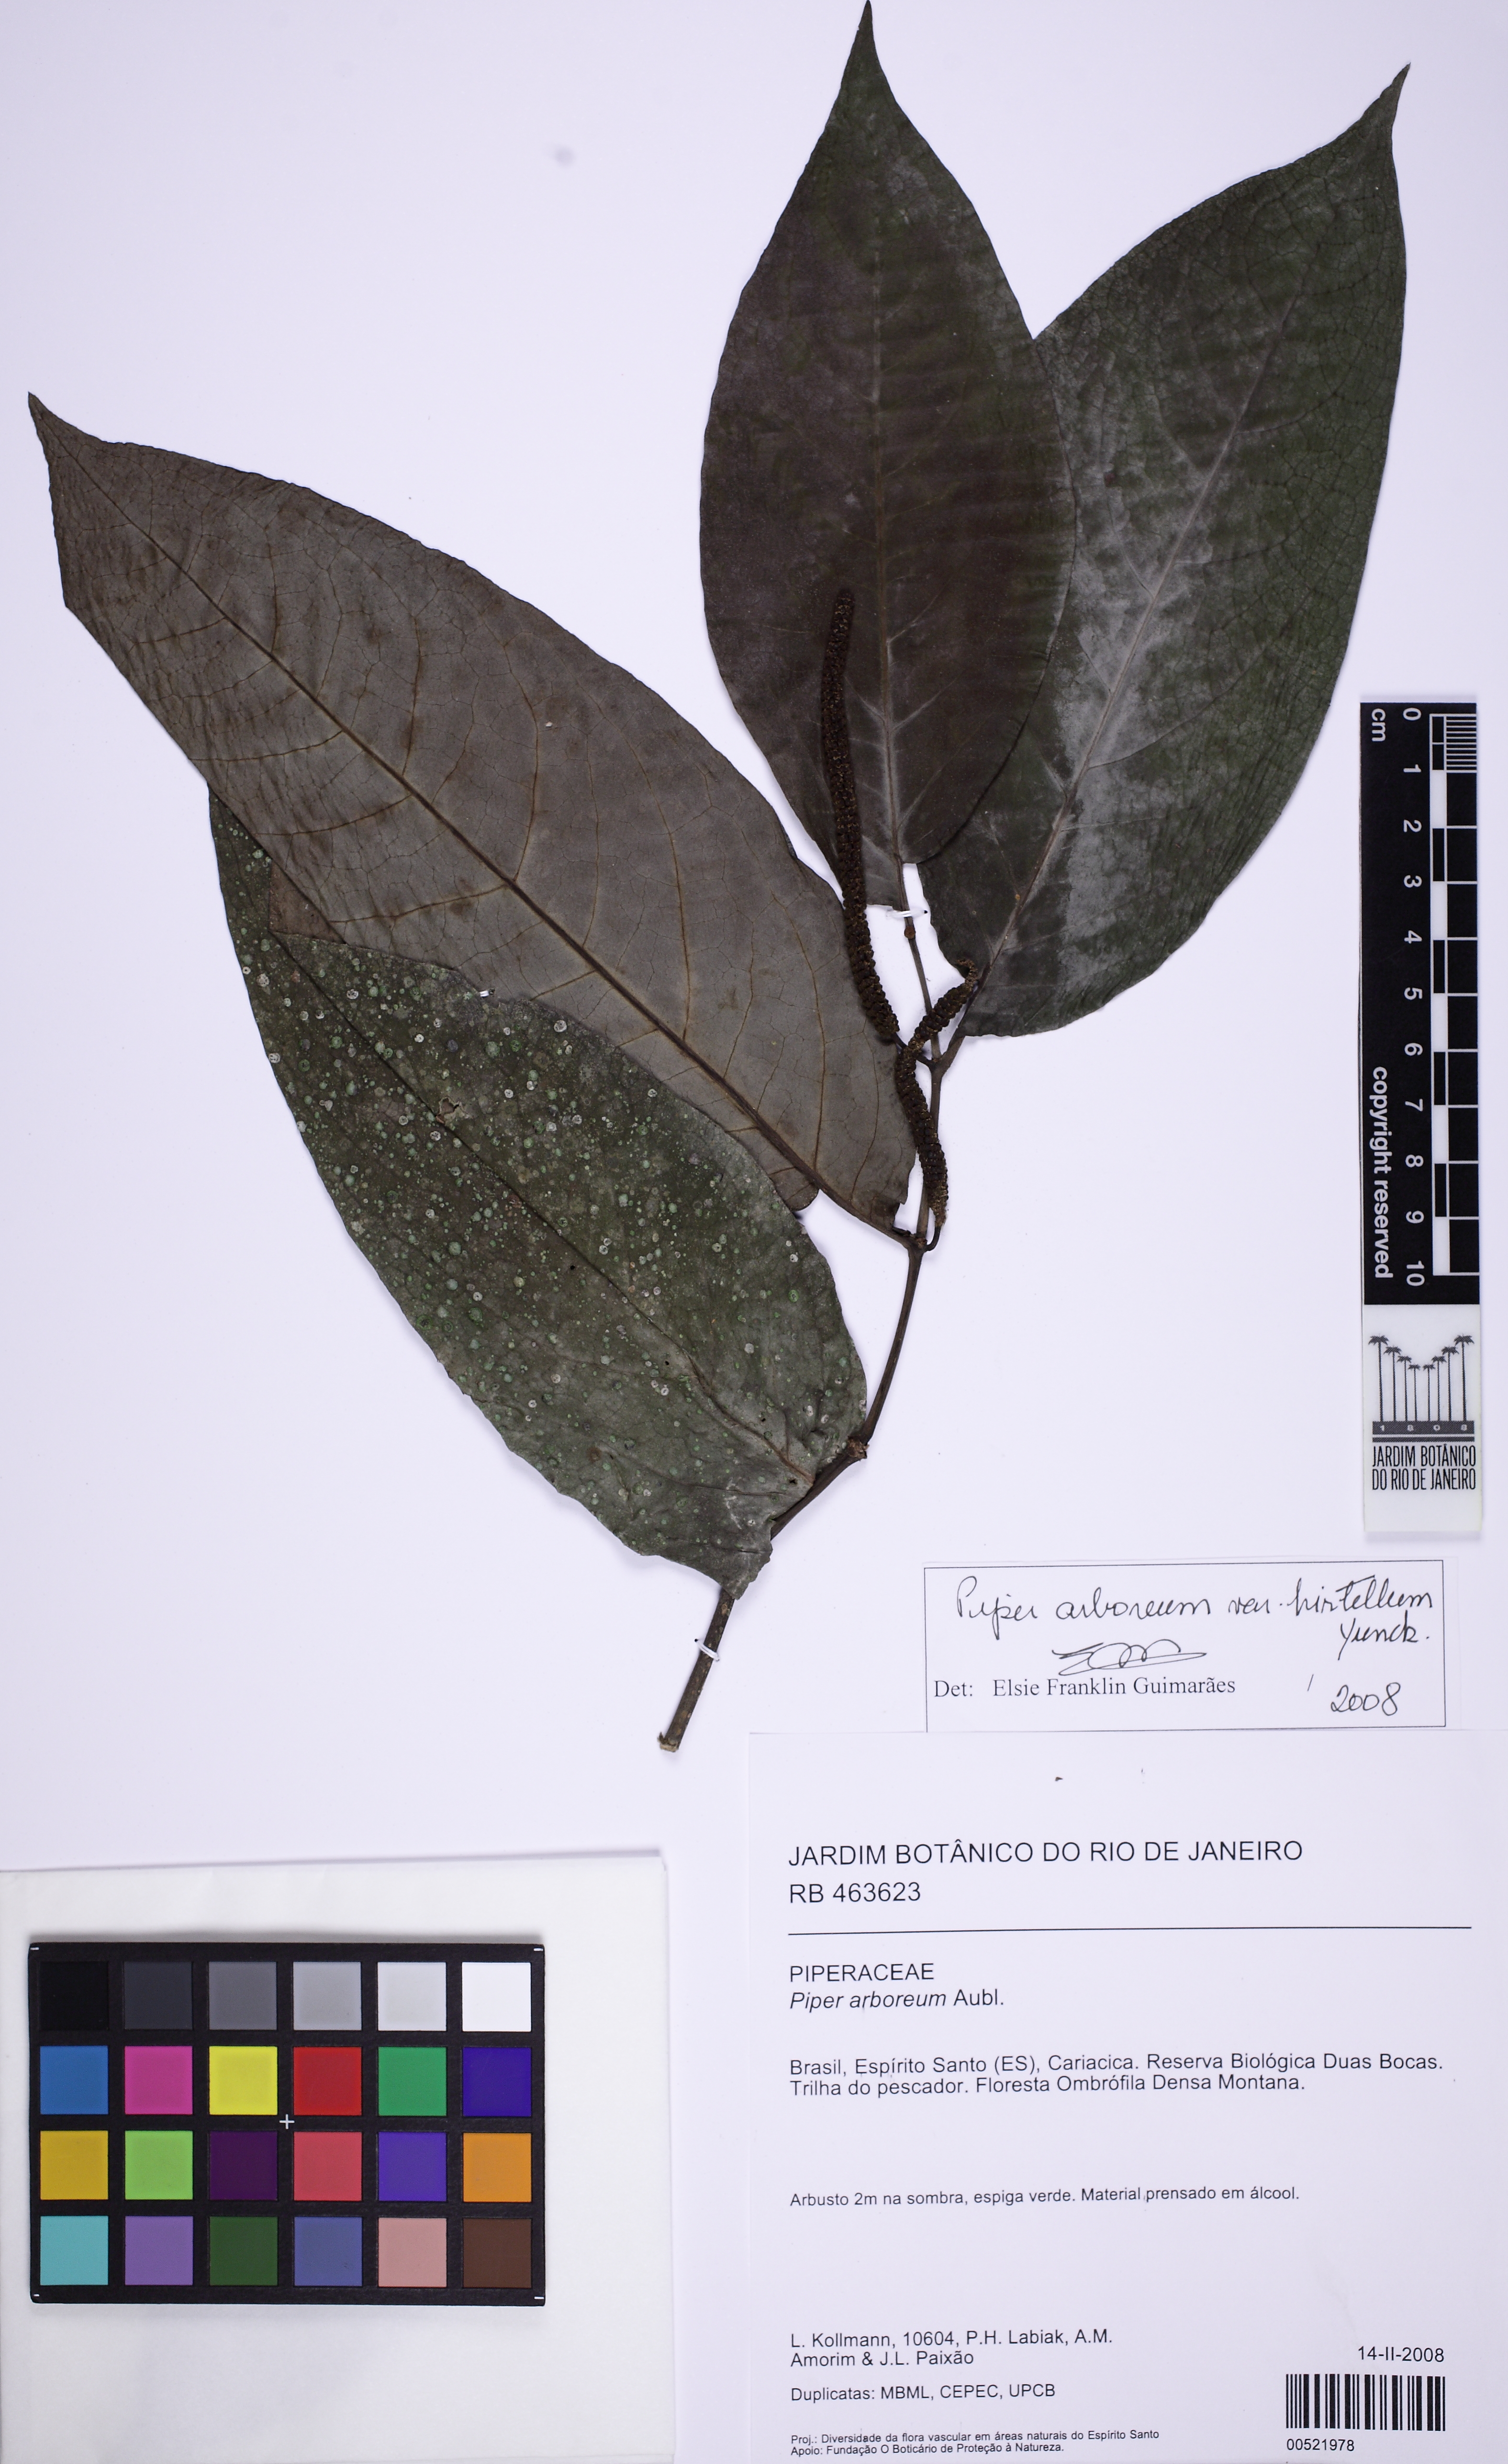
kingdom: Plantae
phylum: Tracheophyta
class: Magnoliopsida
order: Piperales
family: Piperaceae
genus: Piper
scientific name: Piper arboreum
